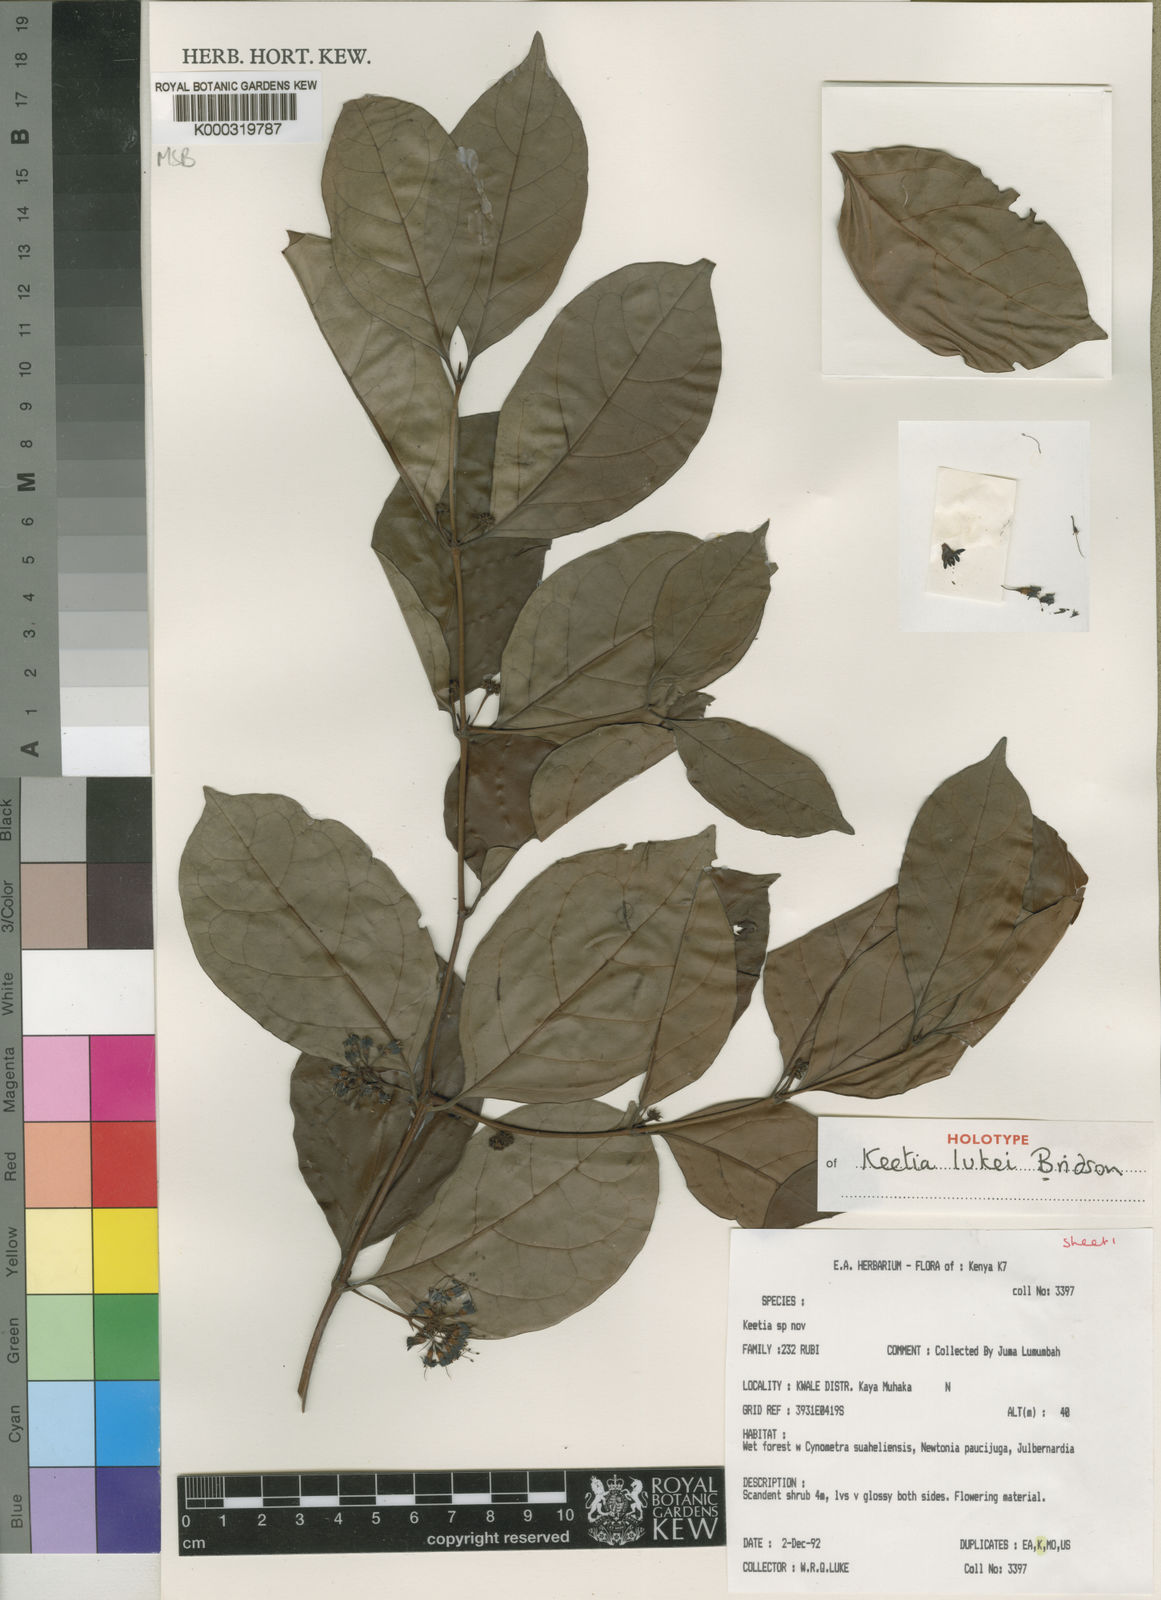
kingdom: Plantae
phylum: Tracheophyta
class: Magnoliopsida
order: Gentianales
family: Rubiaceae
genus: Keetia
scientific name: Keetia lukei
